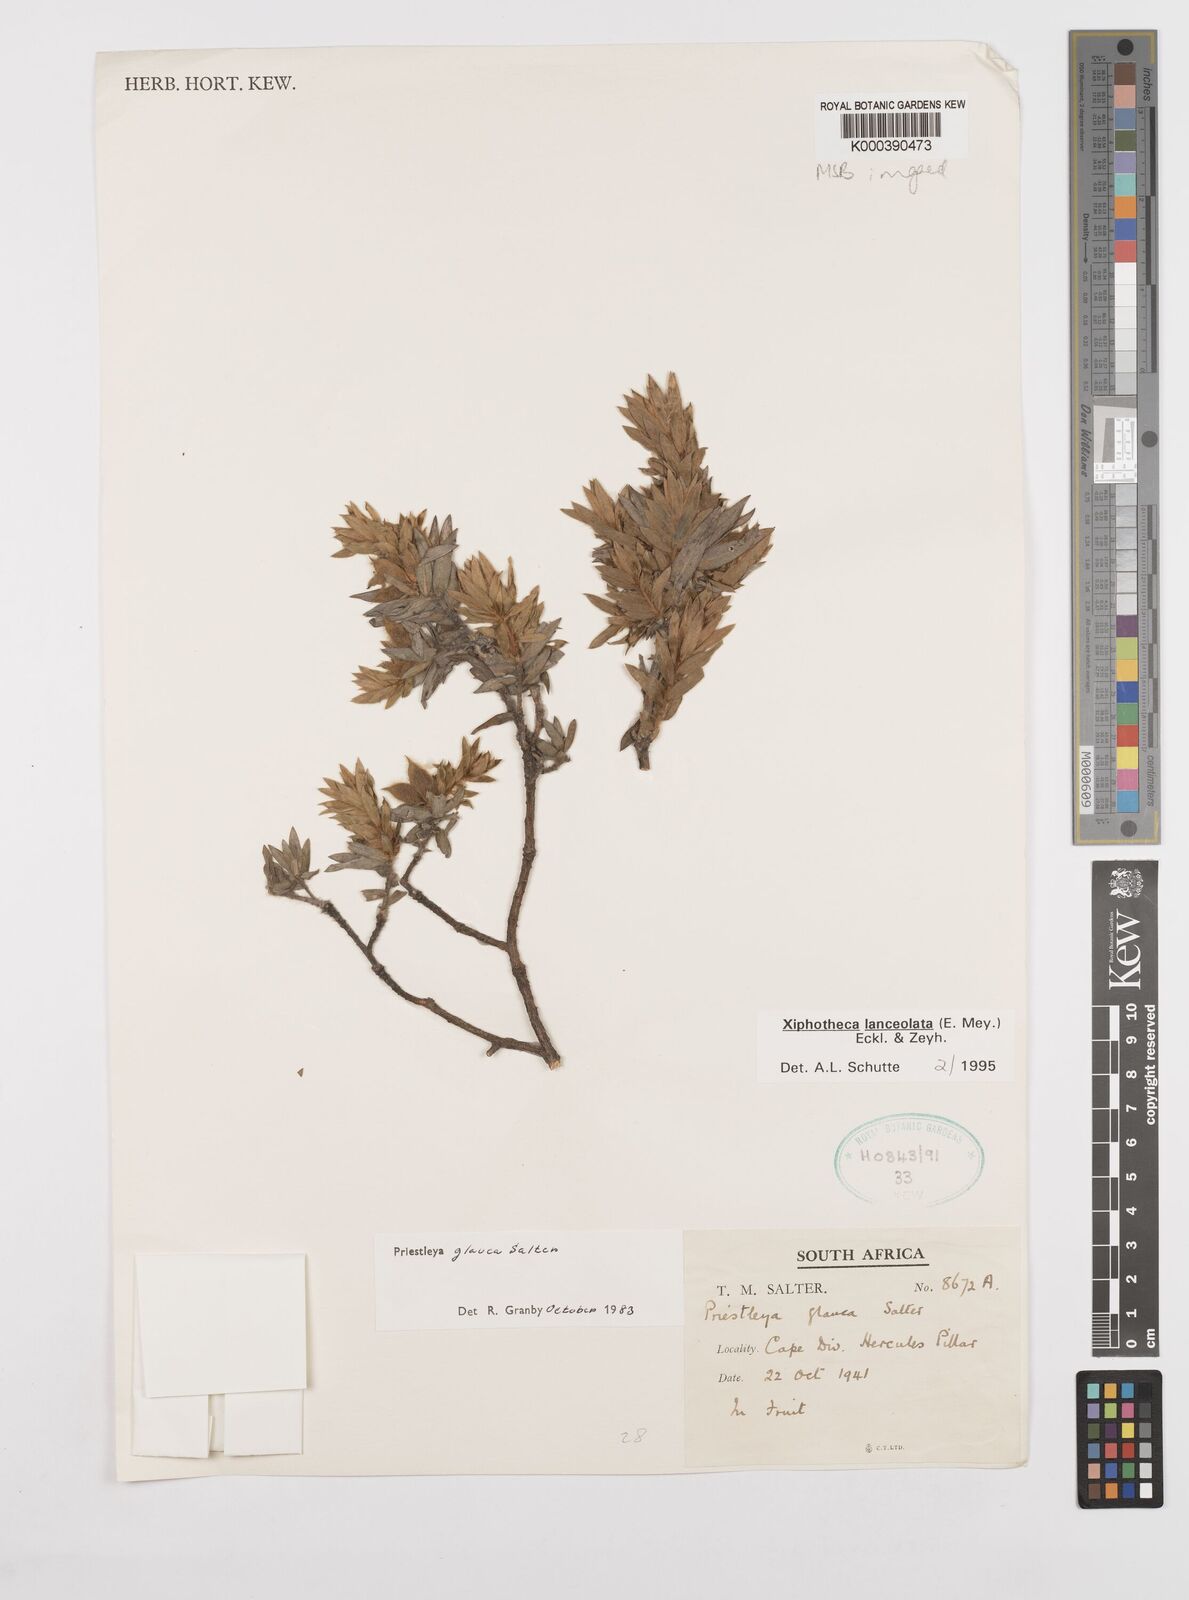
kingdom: Plantae
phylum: Tracheophyta
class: Magnoliopsida
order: Fabales
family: Fabaceae
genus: Xiphotheca
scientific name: Xiphotheca lanceolata
